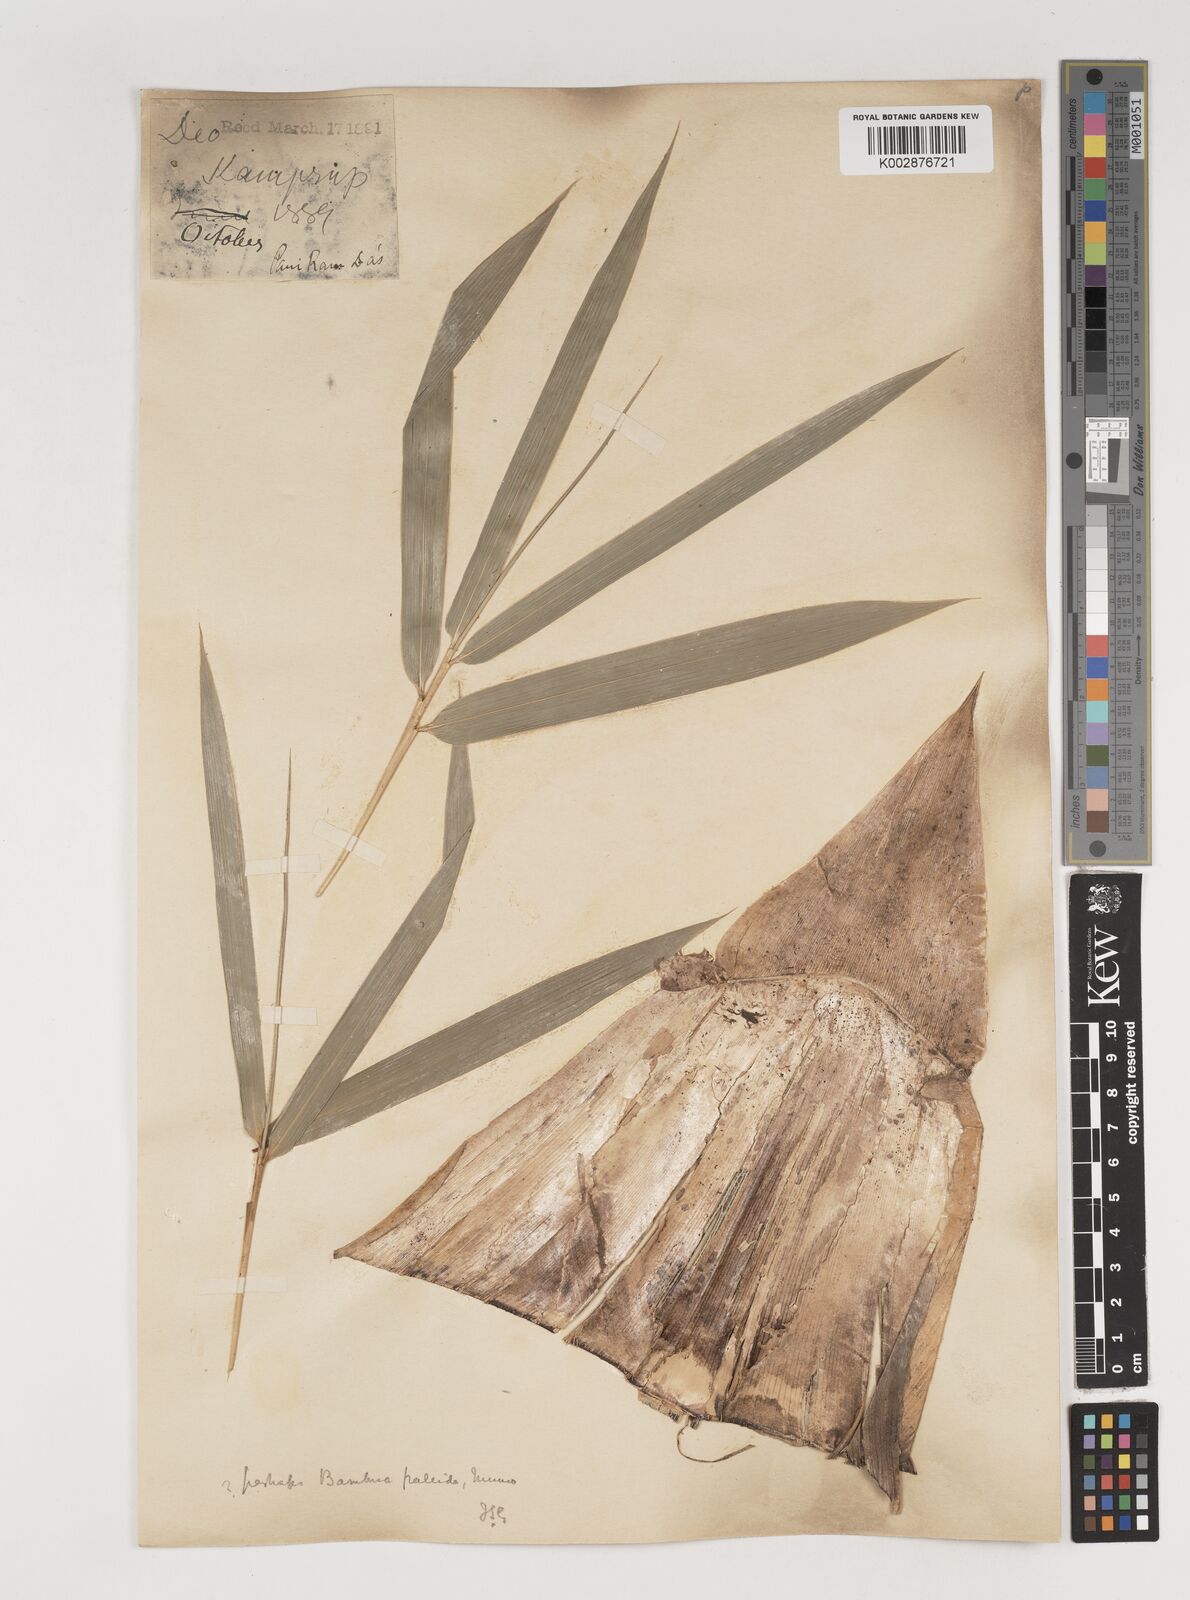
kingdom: Plantae
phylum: Tracheophyta
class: Liliopsida
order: Poales
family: Poaceae
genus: Bambusa
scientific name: Bambusa pallida
